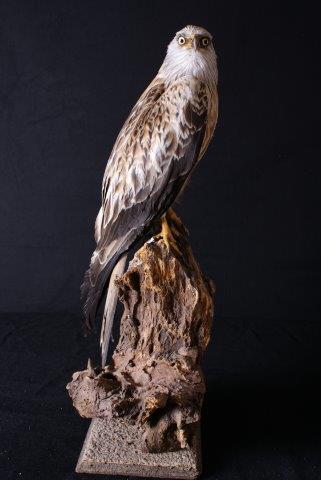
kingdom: Animalia
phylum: Chordata
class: Aves
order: Accipitriformes
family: Accipitridae
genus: Milvus
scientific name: Milvus milvus
